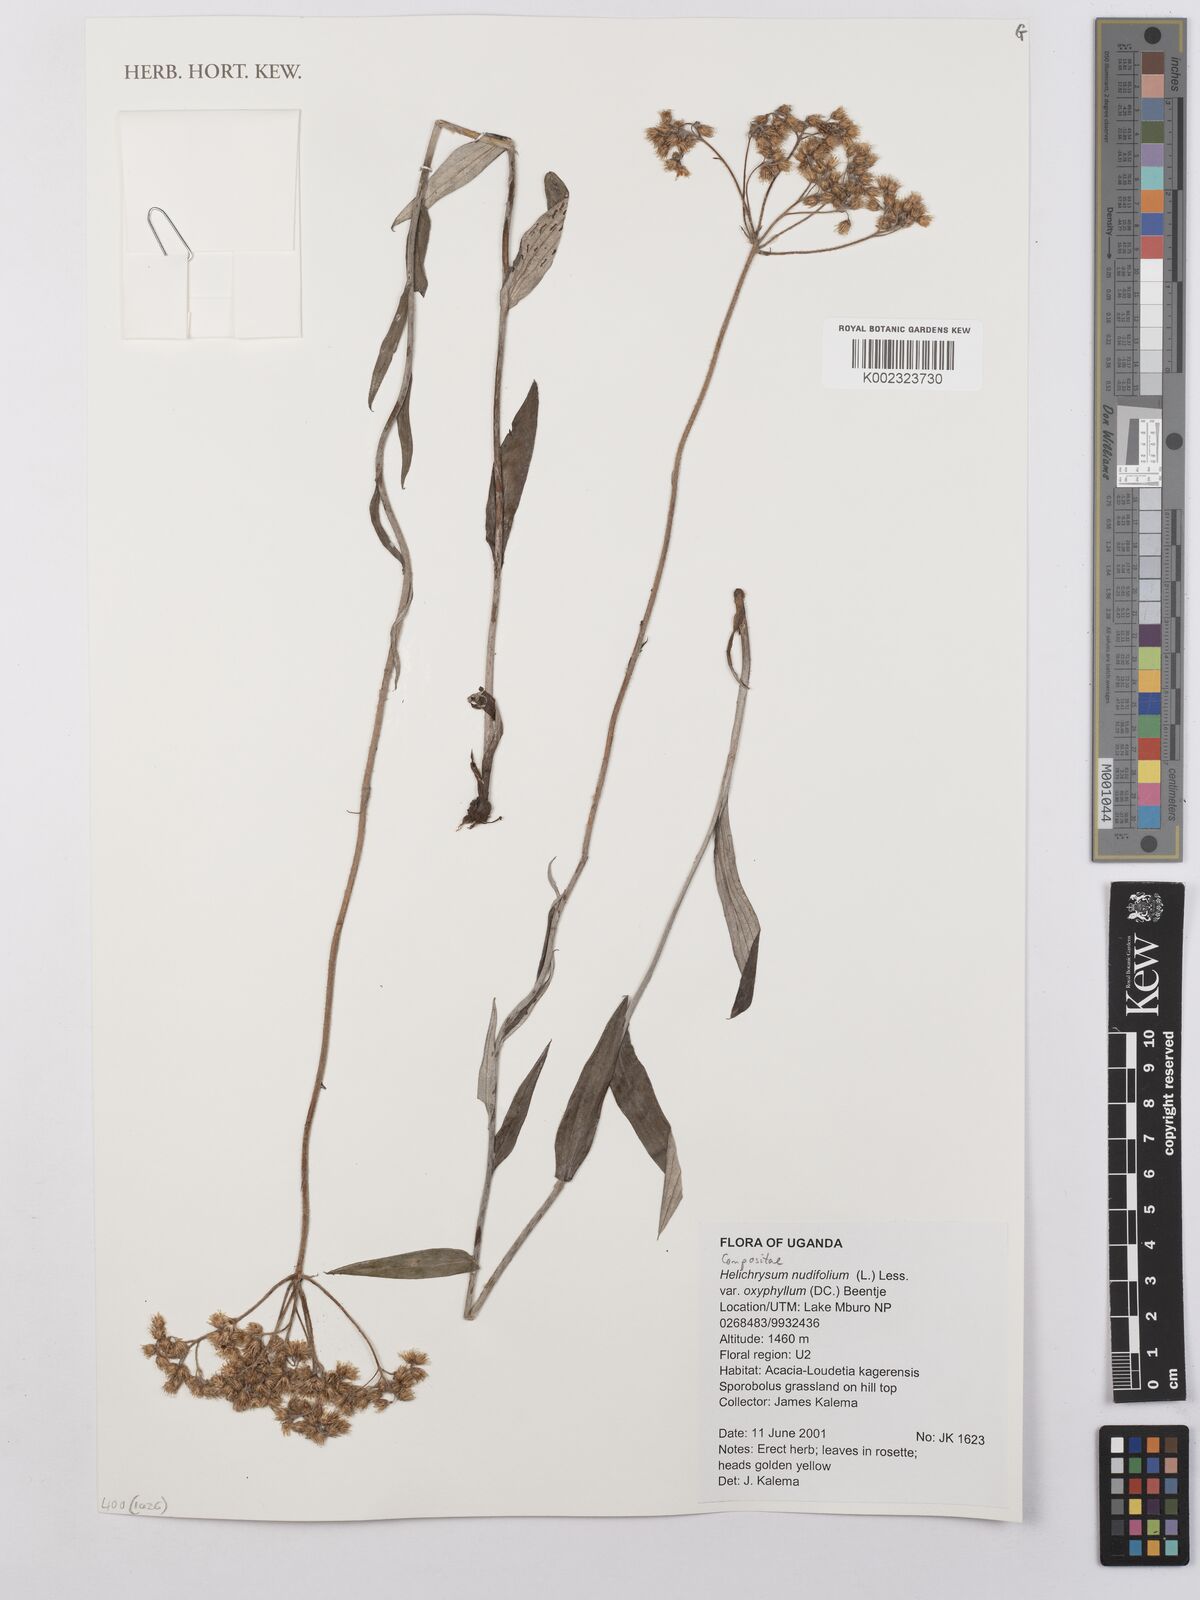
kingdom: Plantae
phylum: Tracheophyta
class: Magnoliopsida
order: Asterales
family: Asteraceae
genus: Helichrysum
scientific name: Helichrysum nudifolium
